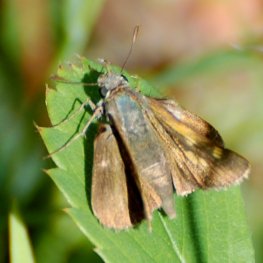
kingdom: Animalia
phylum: Arthropoda
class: Insecta
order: Lepidoptera
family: Hesperiidae
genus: Polites
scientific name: Polites themistocles
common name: Tawny-edged Skipper
